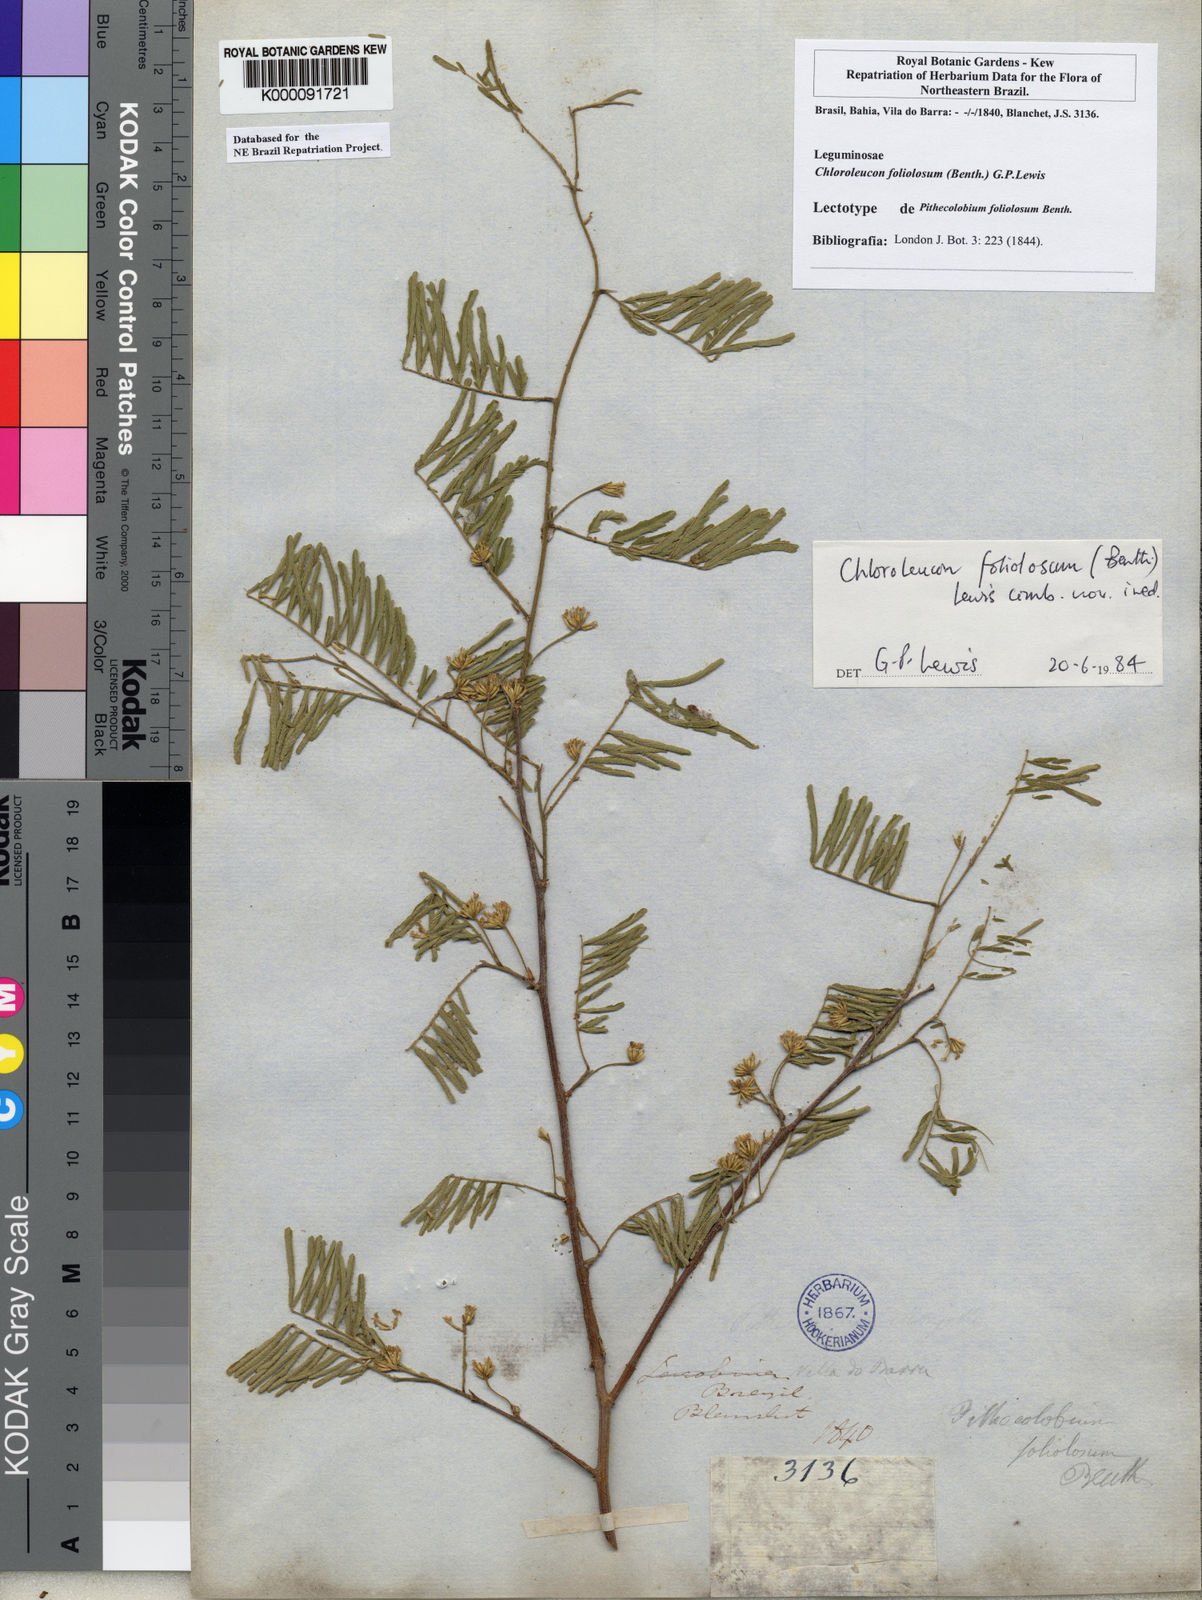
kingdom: Plantae
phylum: Tracheophyta
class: Magnoliopsida
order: Fabales
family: Fabaceae
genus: Chloroleucon
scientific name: Chloroleucon foliolosum
